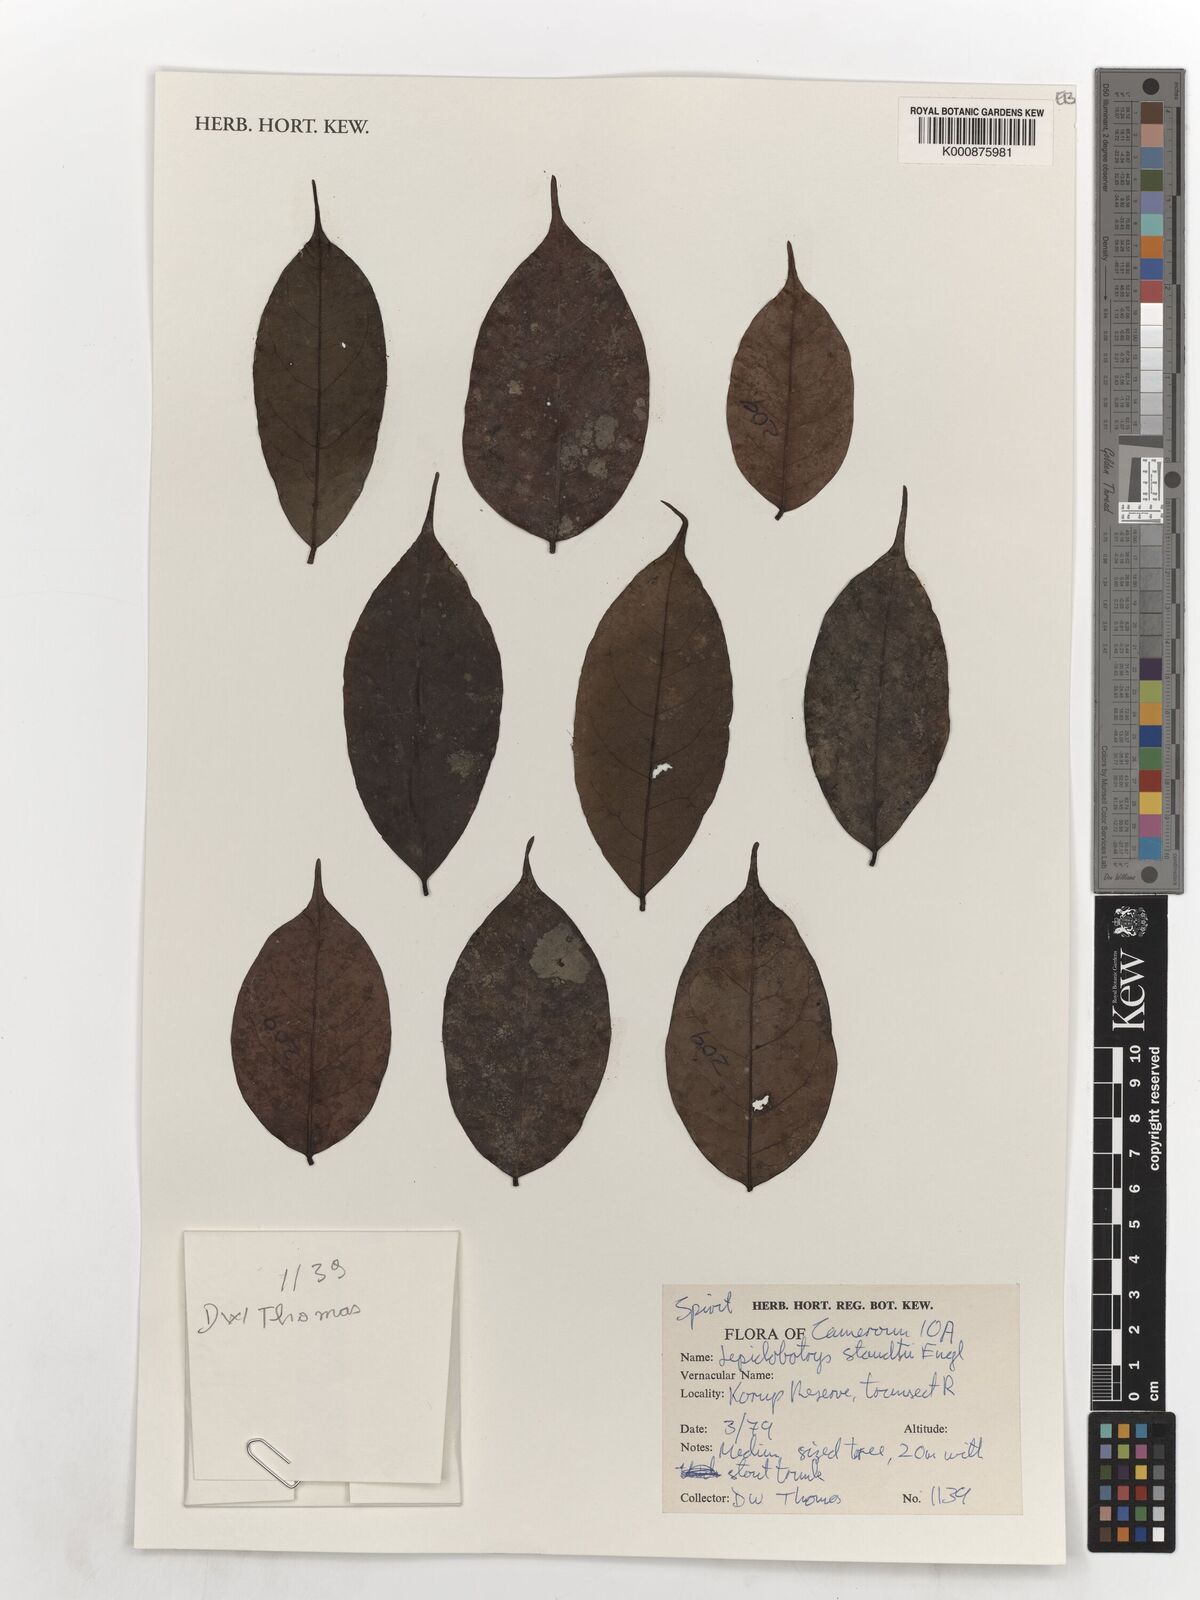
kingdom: Plantae
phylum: Tracheophyta
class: Magnoliopsida
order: Celastrales
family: Lepidobotryaceae
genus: Lepidobotrys
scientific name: Lepidobotrys staudtii
